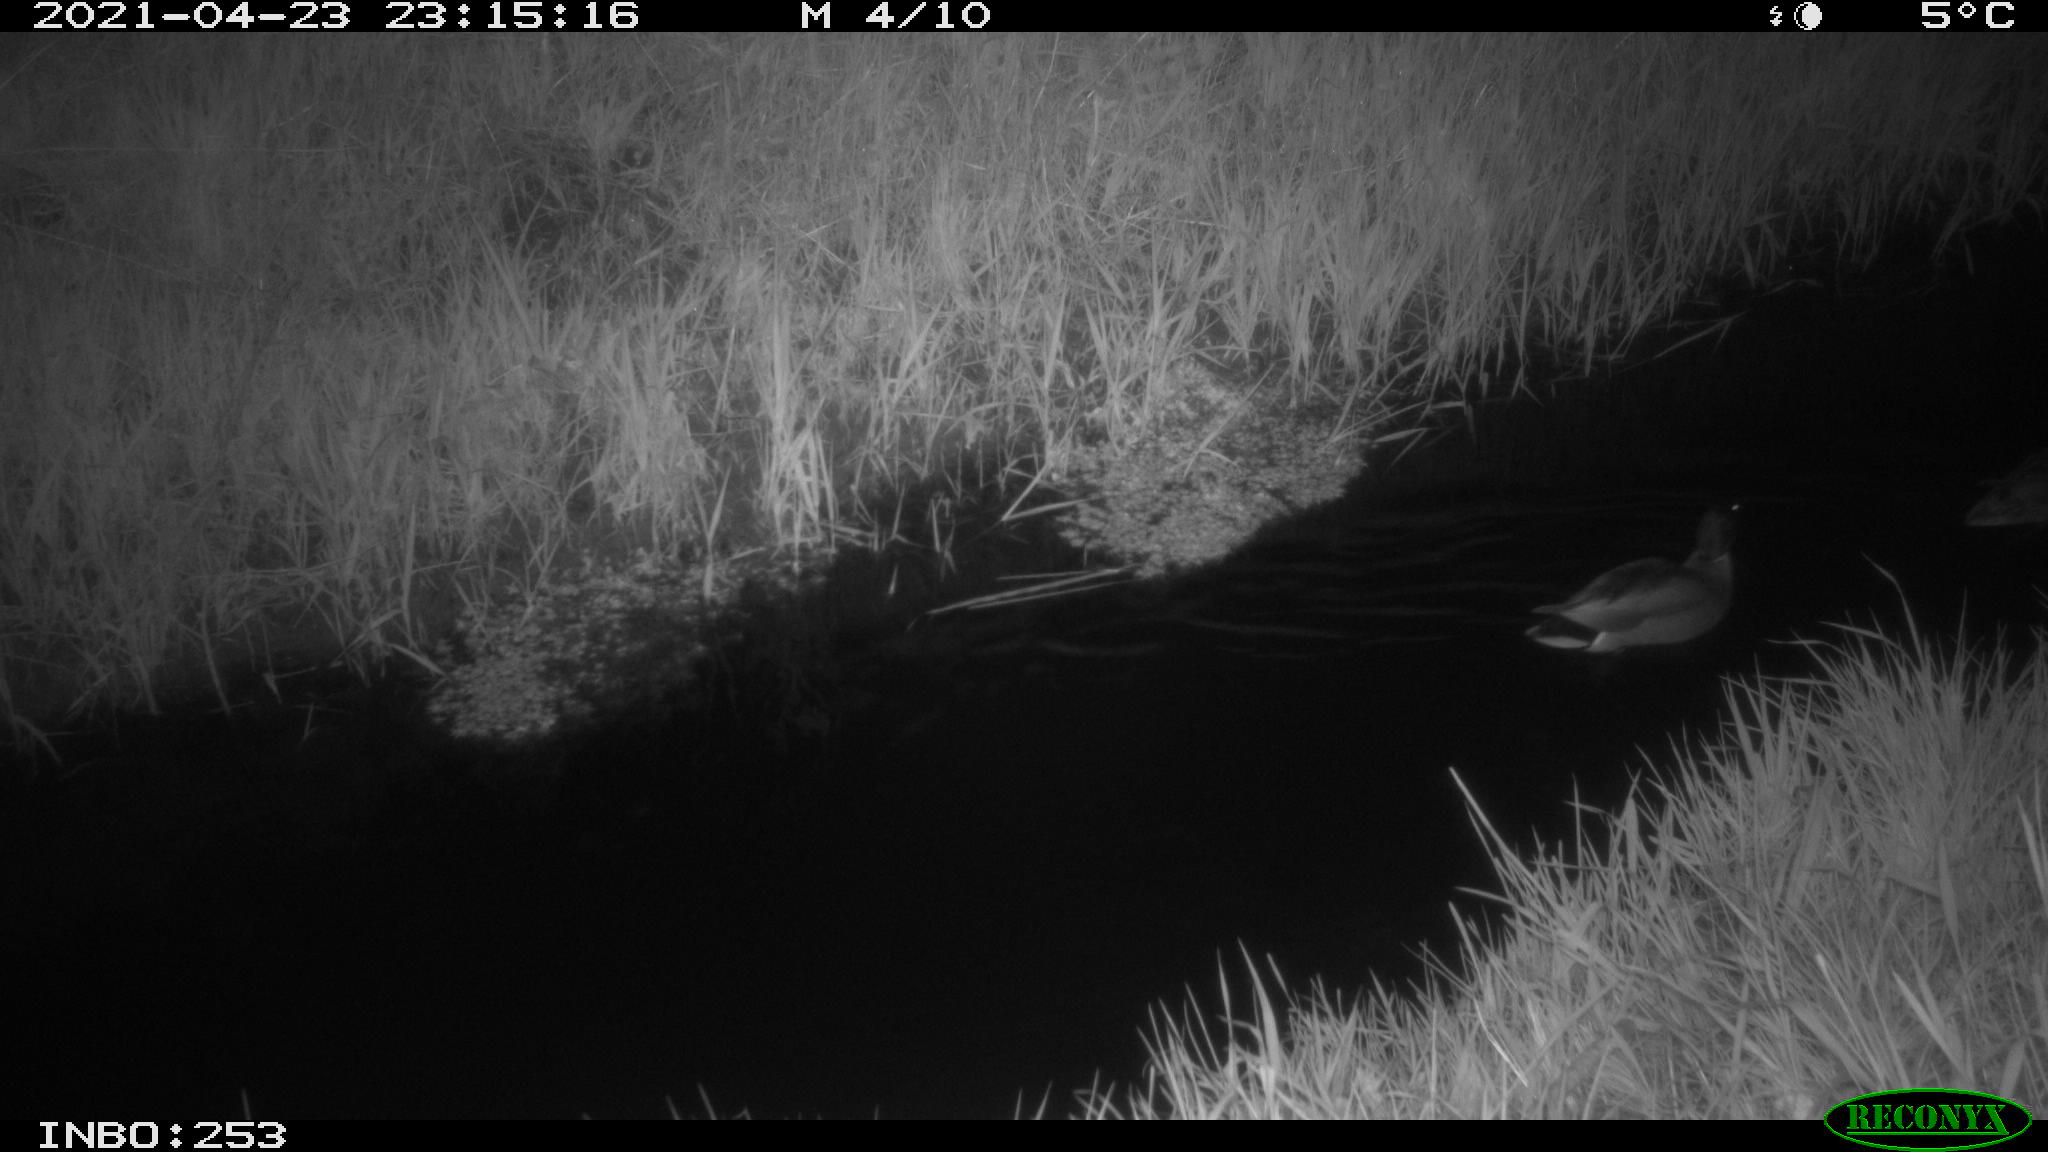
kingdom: Animalia
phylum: Chordata
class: Aves
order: Anseriformes
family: Anatidae
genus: Anas
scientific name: Anas platyrhynchos
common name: Mallard
